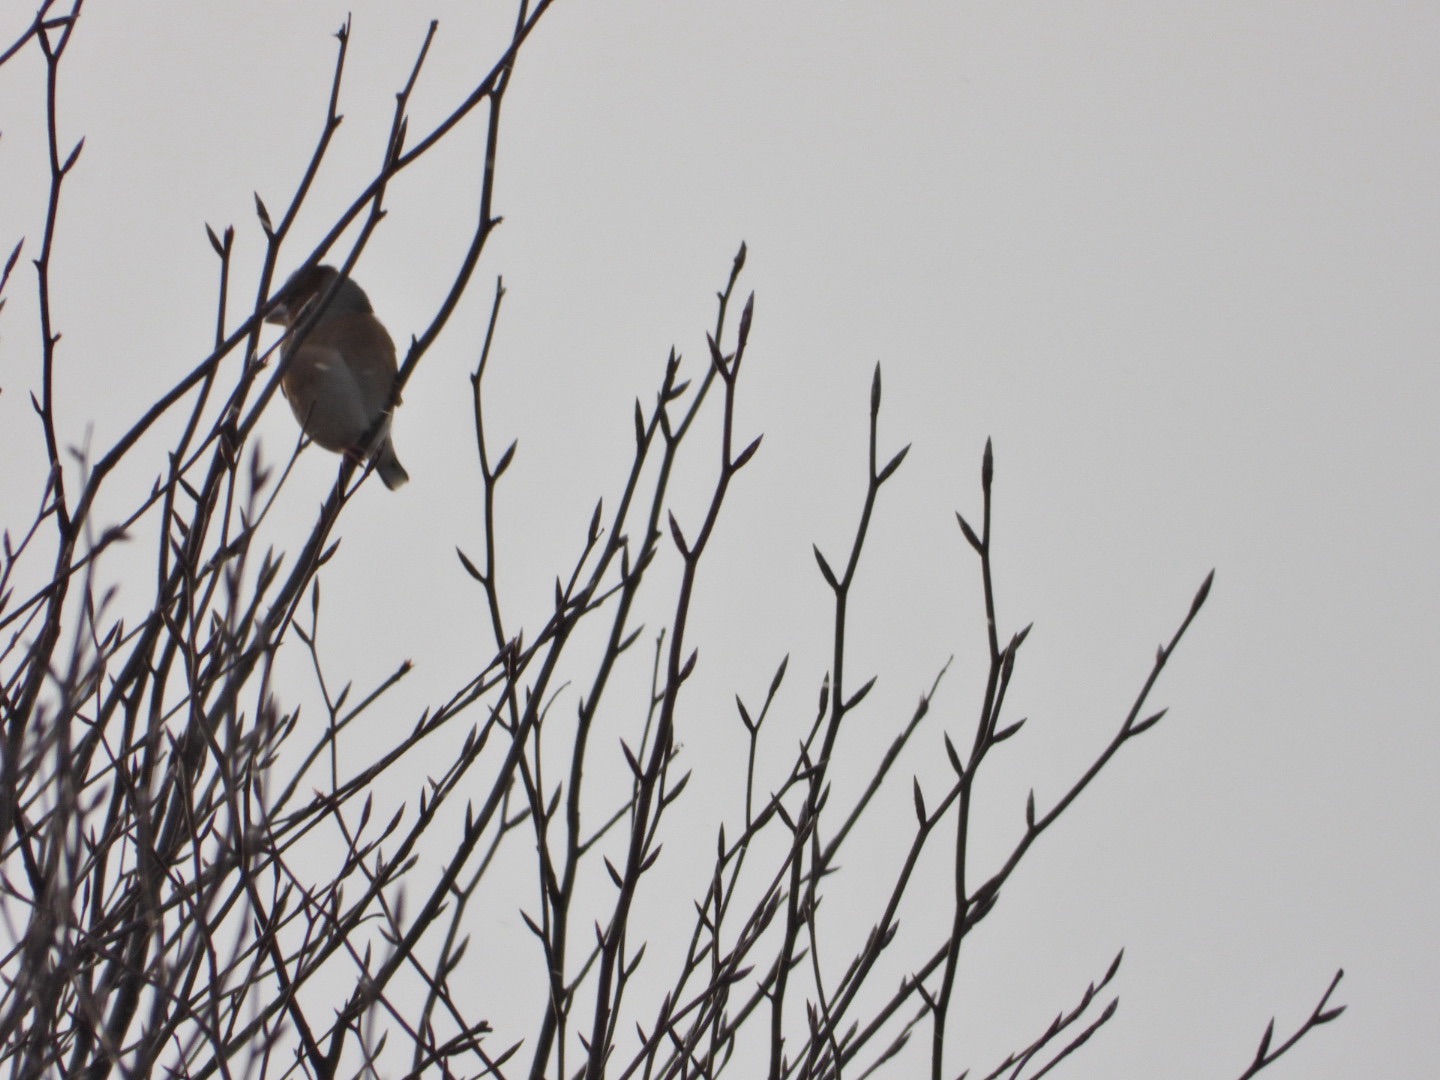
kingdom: Animalia
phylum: Chordata
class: Aves
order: Passeriformes
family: Fringillidae
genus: Coccothraustes
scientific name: Coccothraustes coccothraustes
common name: Kernebider
